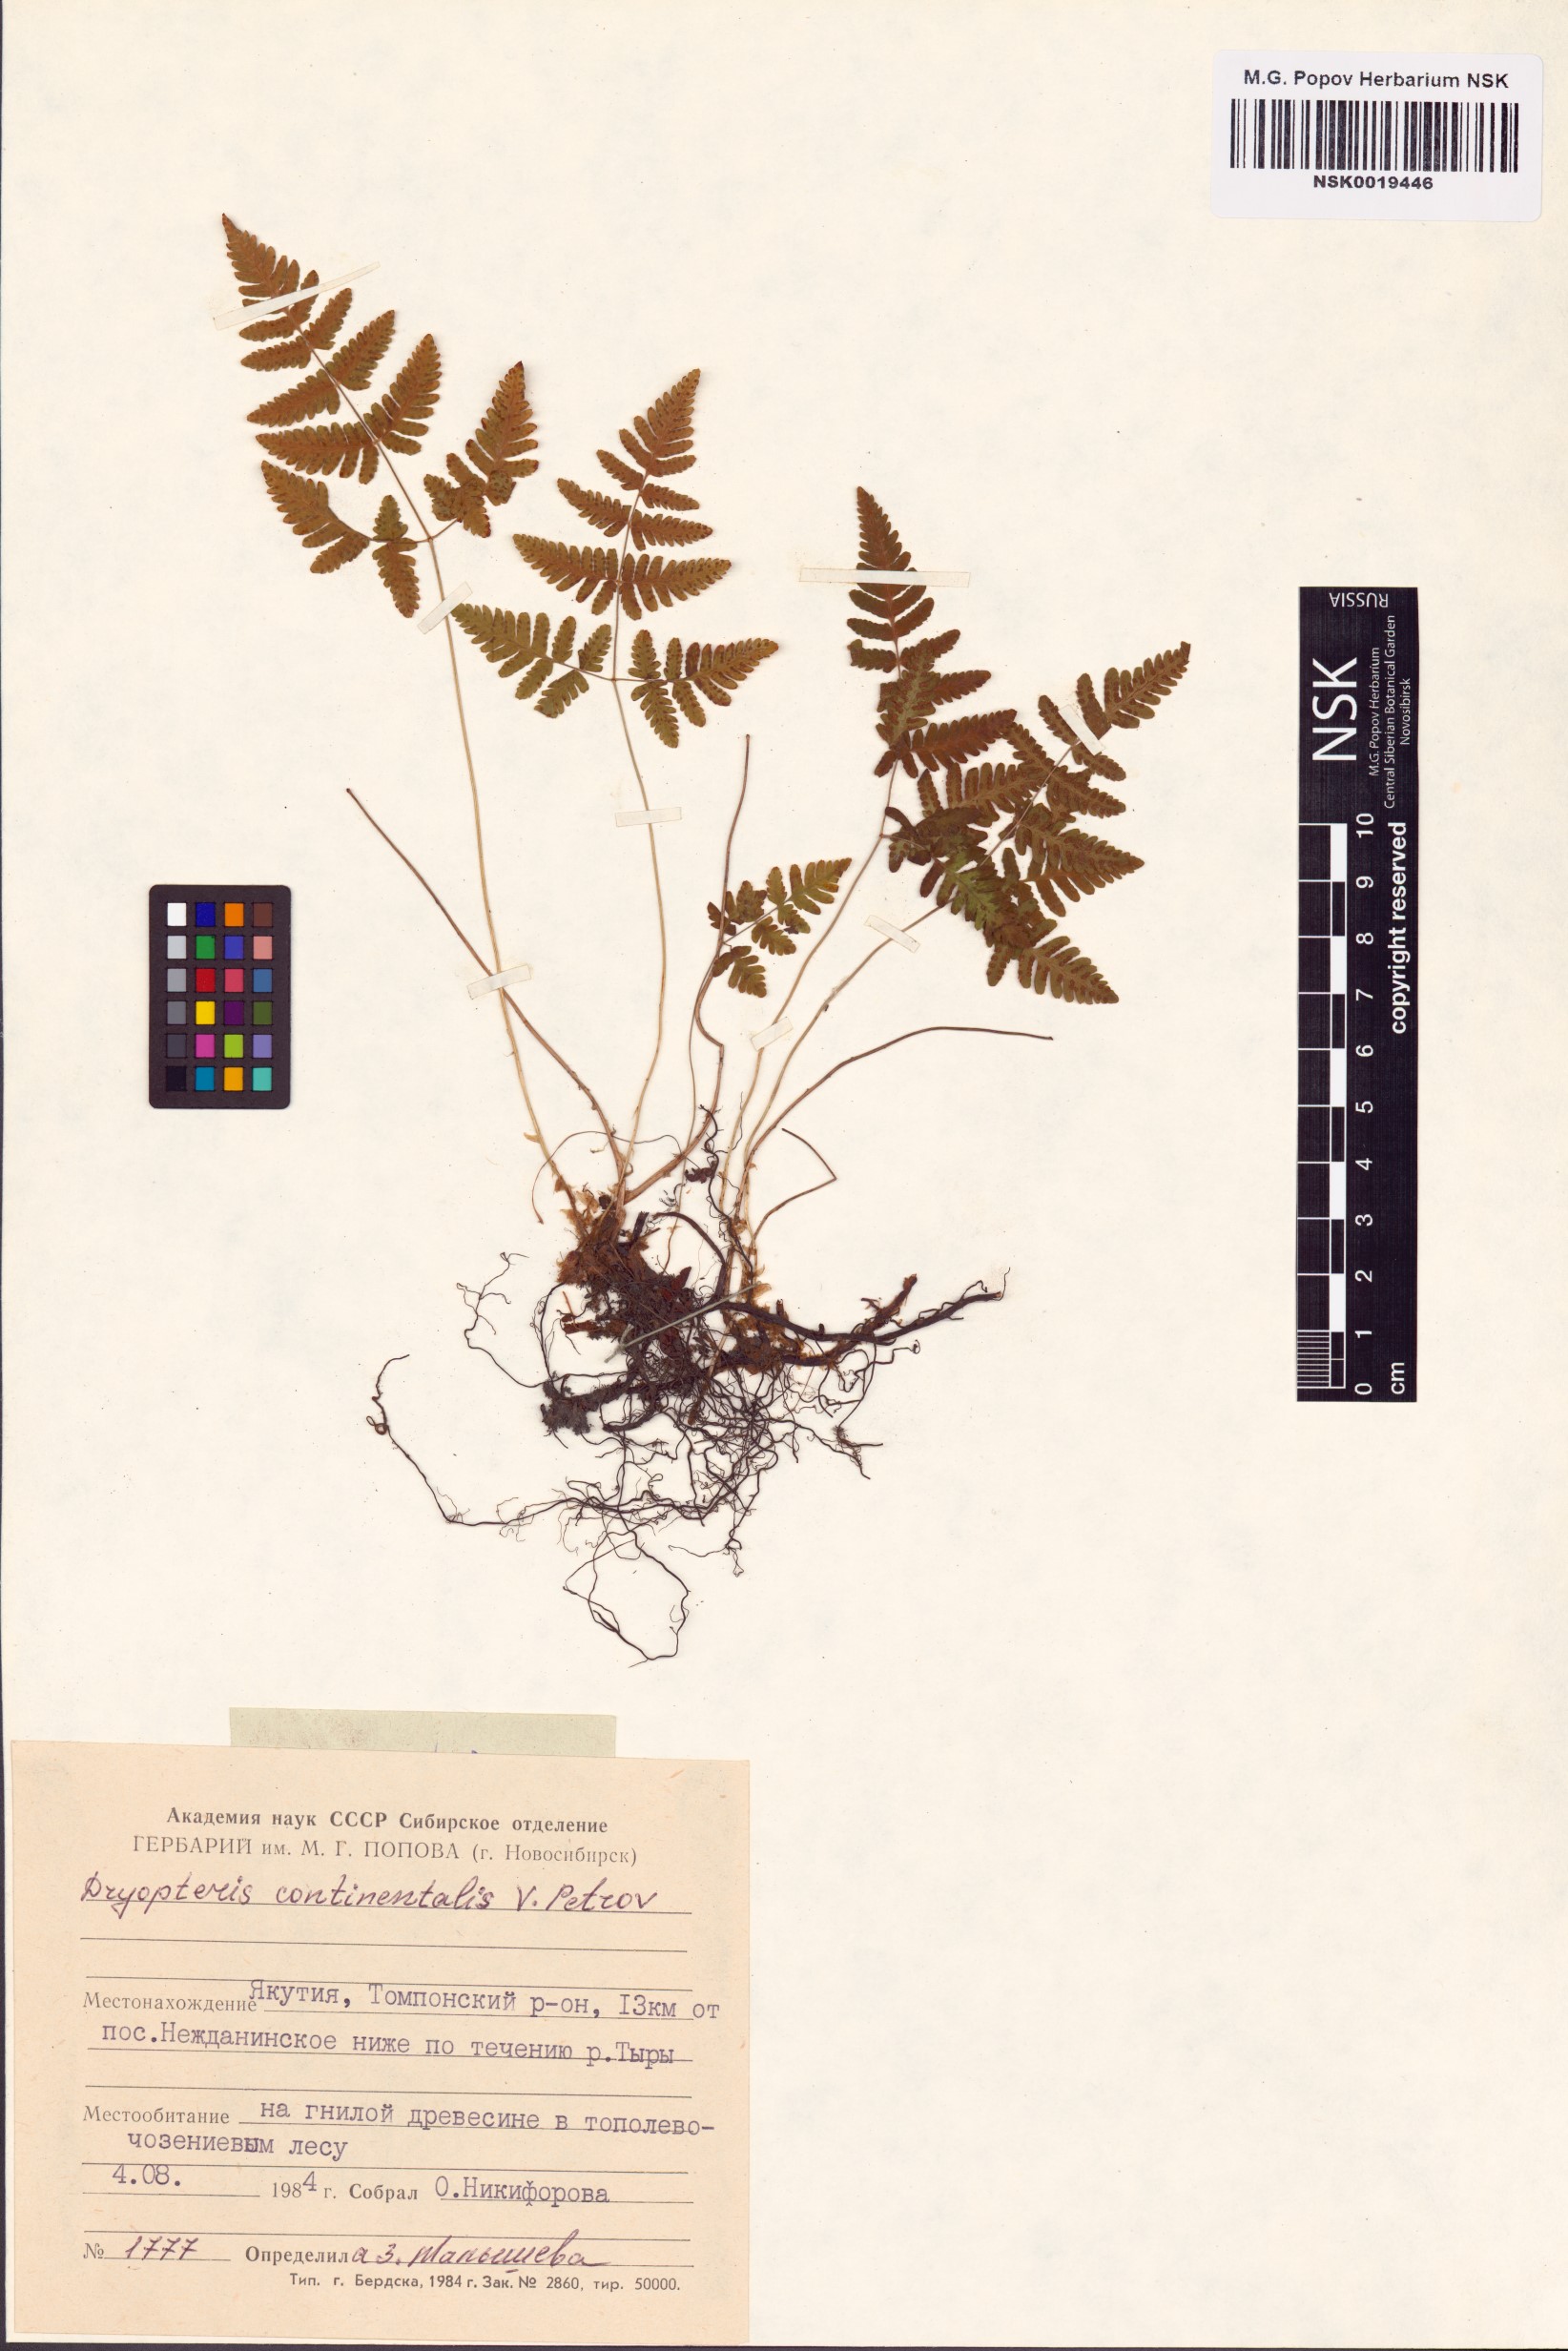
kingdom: Plantae
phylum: Tracheophyta
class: Polypodiopsida
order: Polypodiales
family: Cystopteridaceae
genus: Gymnocarpium
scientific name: Gymnocarpium continentale
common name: Asian oak fern
